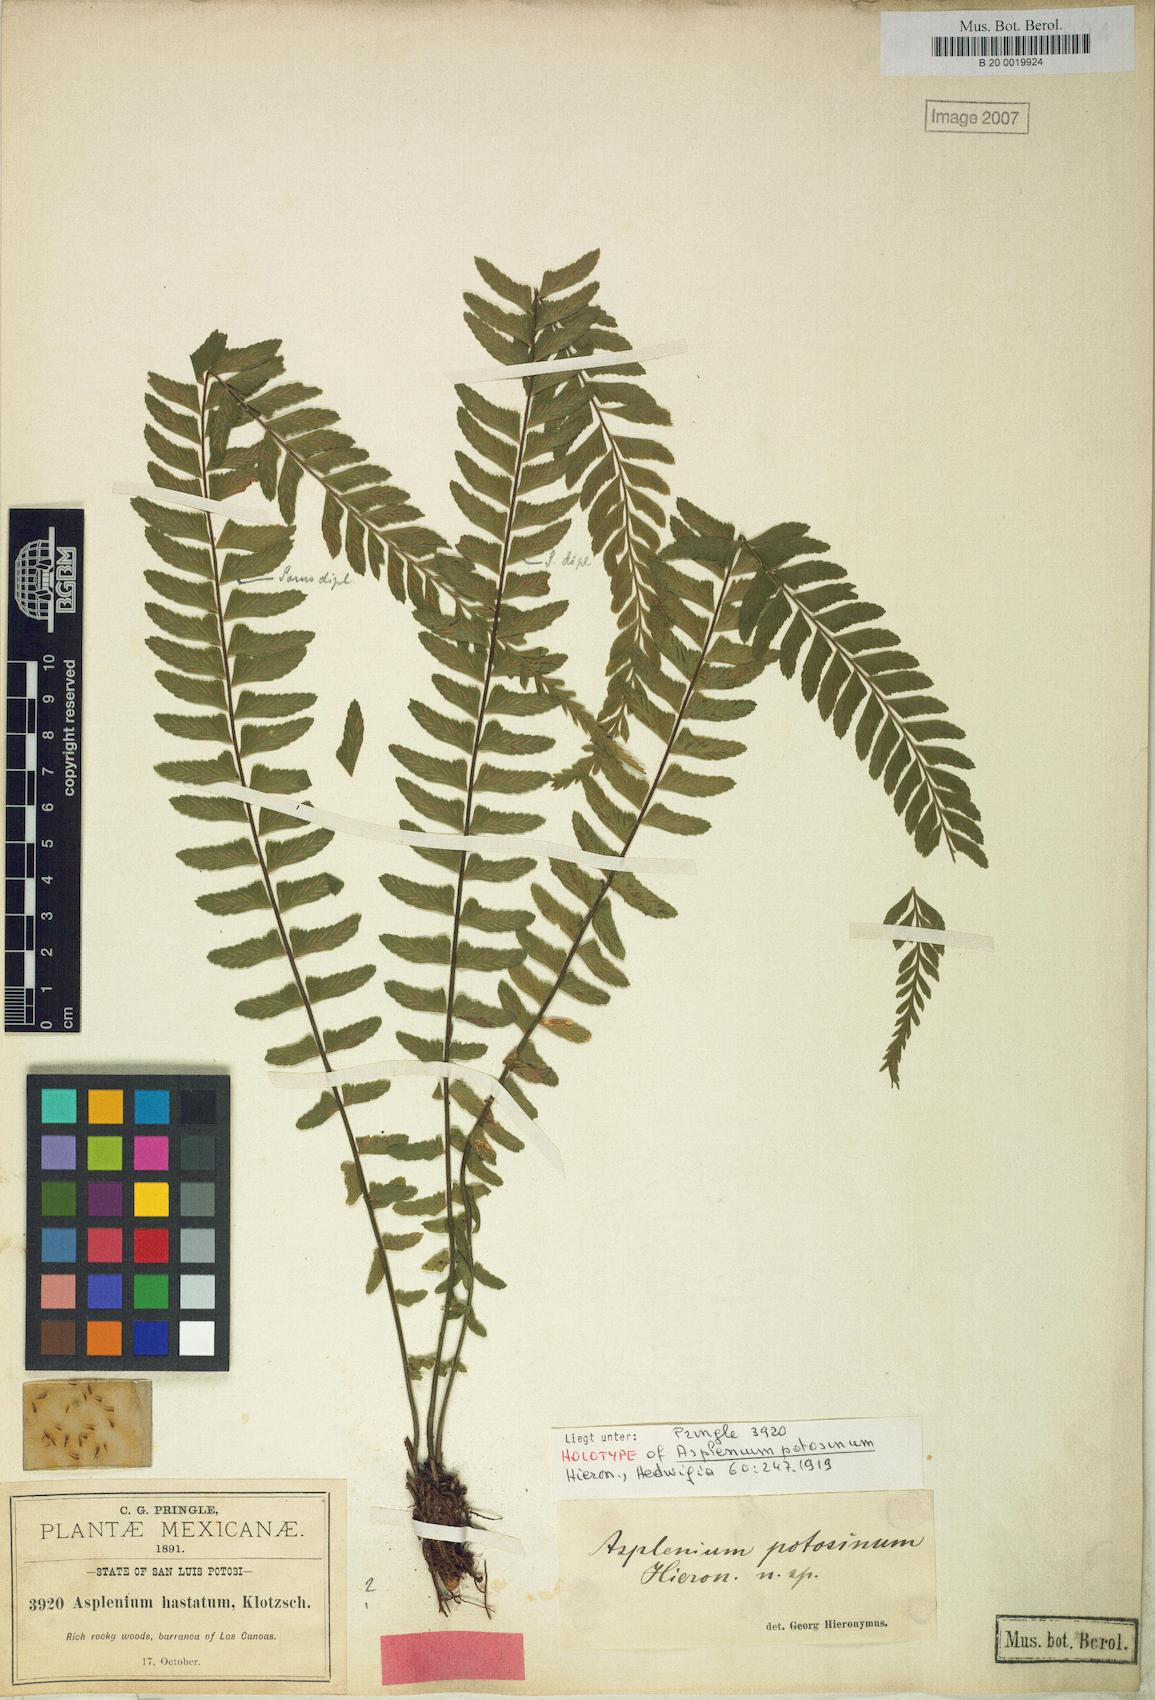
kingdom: Plantae
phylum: Tracheophyta
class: Polypodiopsida
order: Polypodiales
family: Aspleniaceae
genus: Asplenium
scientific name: Asplenium potosinum
